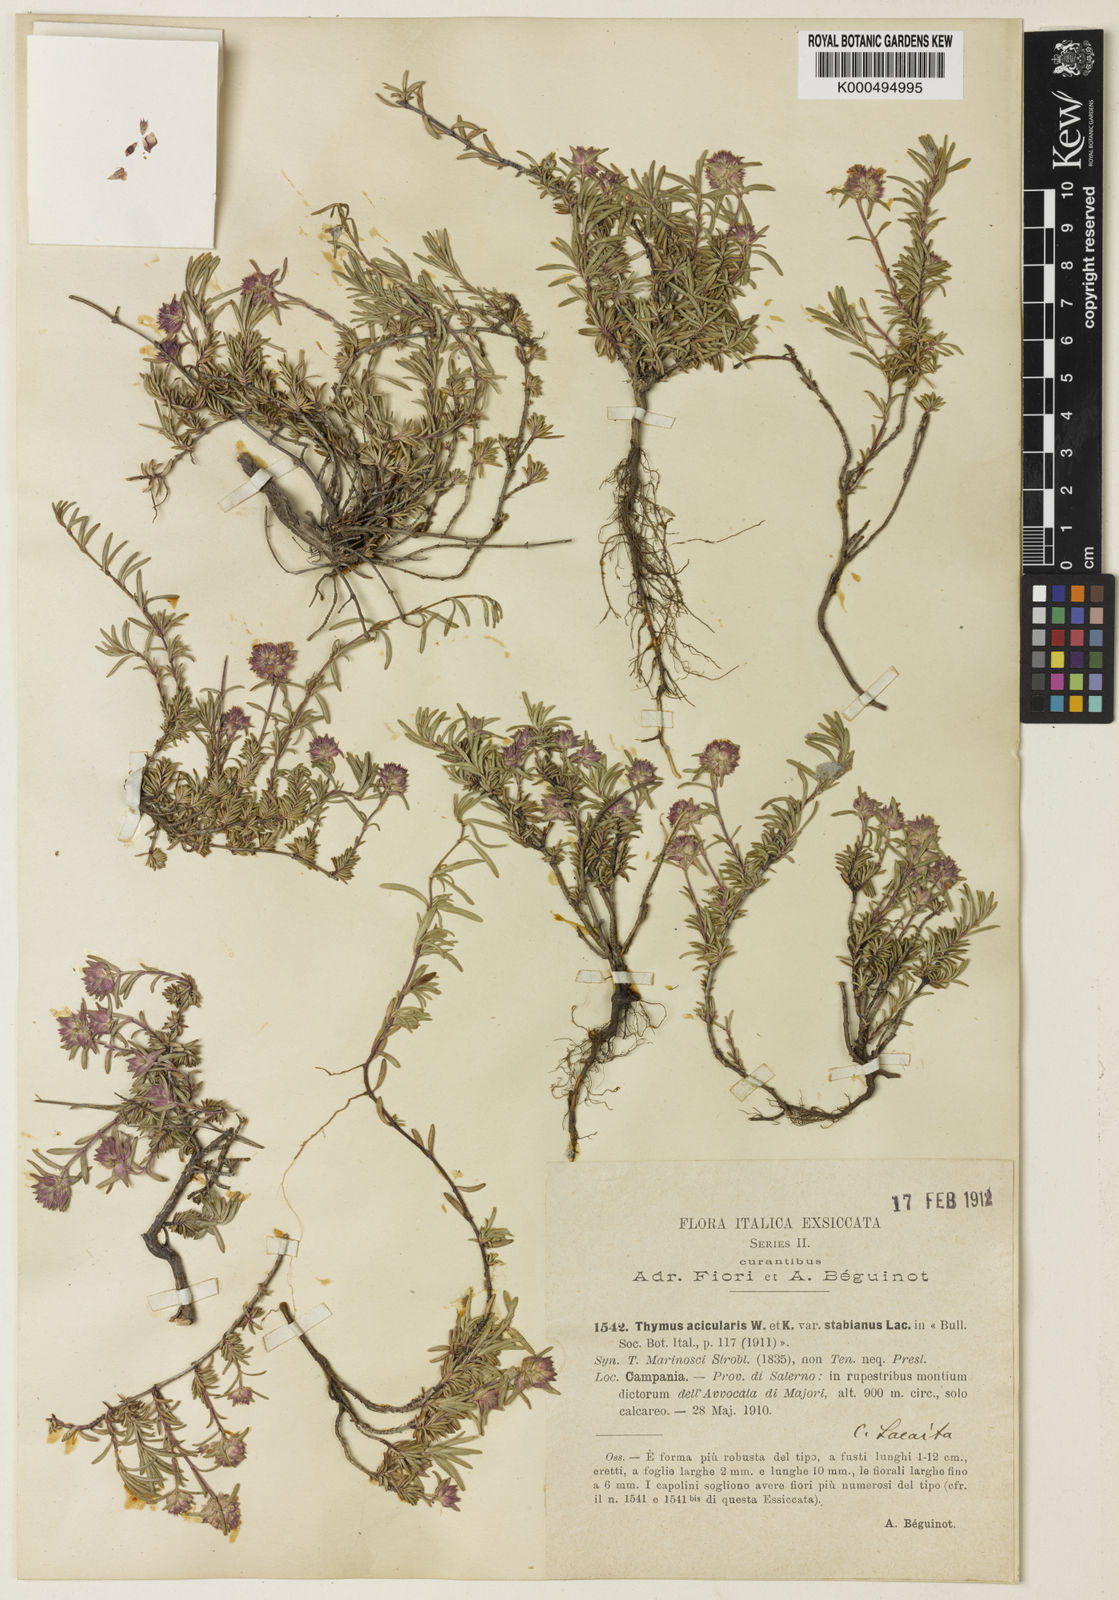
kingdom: Plantae
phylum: Tracheophyta
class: Magnoliopsida
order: Lamiales
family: Lamiaceae
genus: Thymus
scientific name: Thymus striatus
